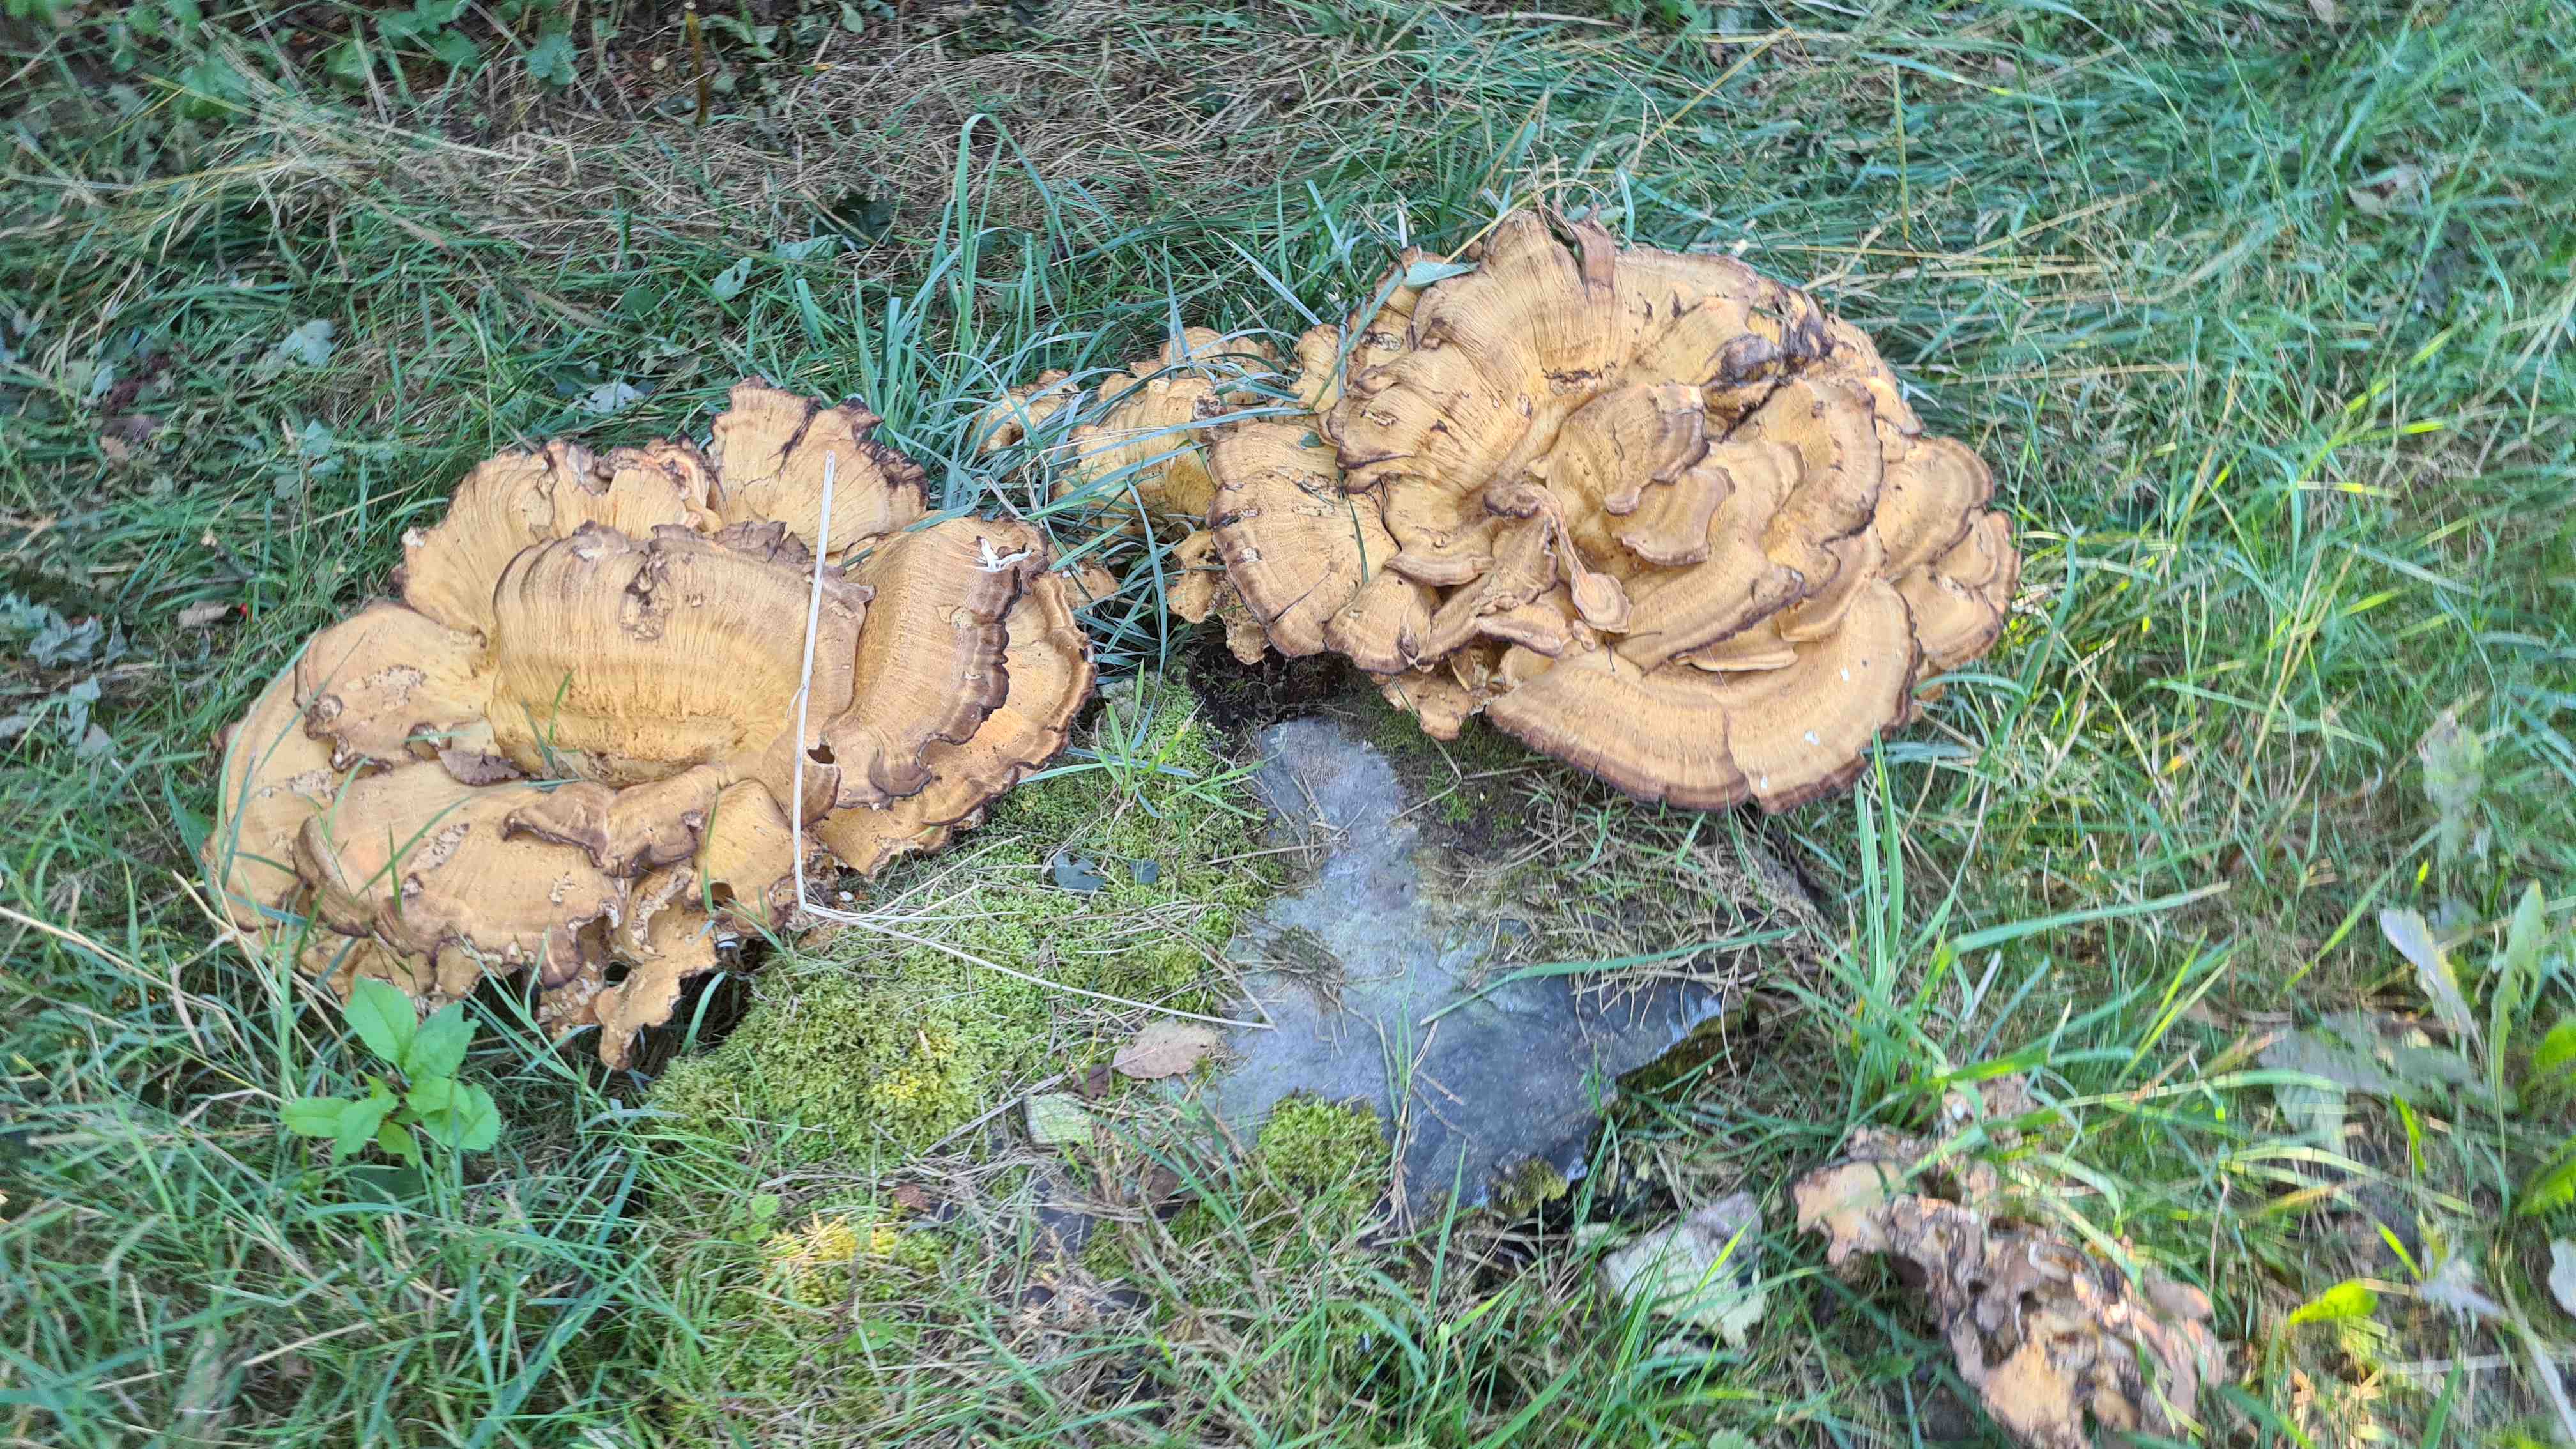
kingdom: Fungi
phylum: Basidiomycota
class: Agaricomycetes
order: Polyporales
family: Meripilaceae
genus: Meripilus
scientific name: Meripilus giganteus
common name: kæmpeporesvamp
